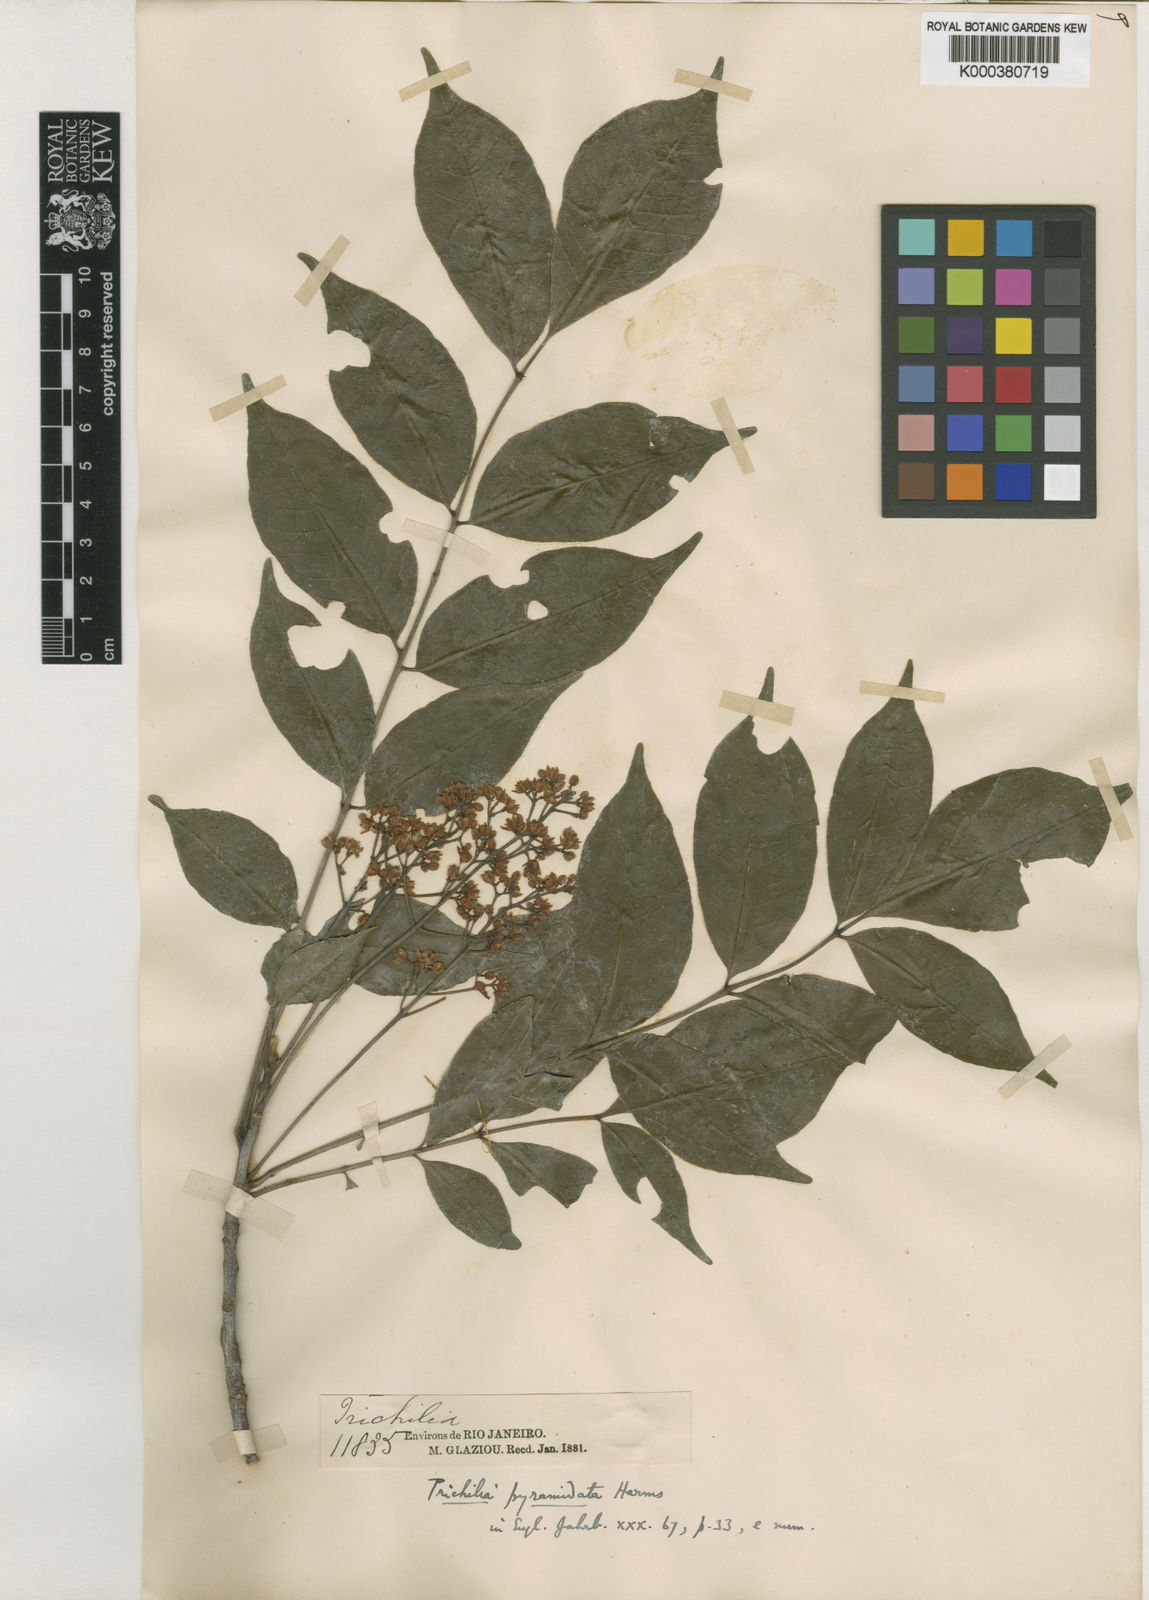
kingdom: Plantae
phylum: Tracheophyta
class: Magnoliopsida
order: Sapindales
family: Meliaceae
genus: Trichilia
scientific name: Trichilia hirta
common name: Red-cedar
